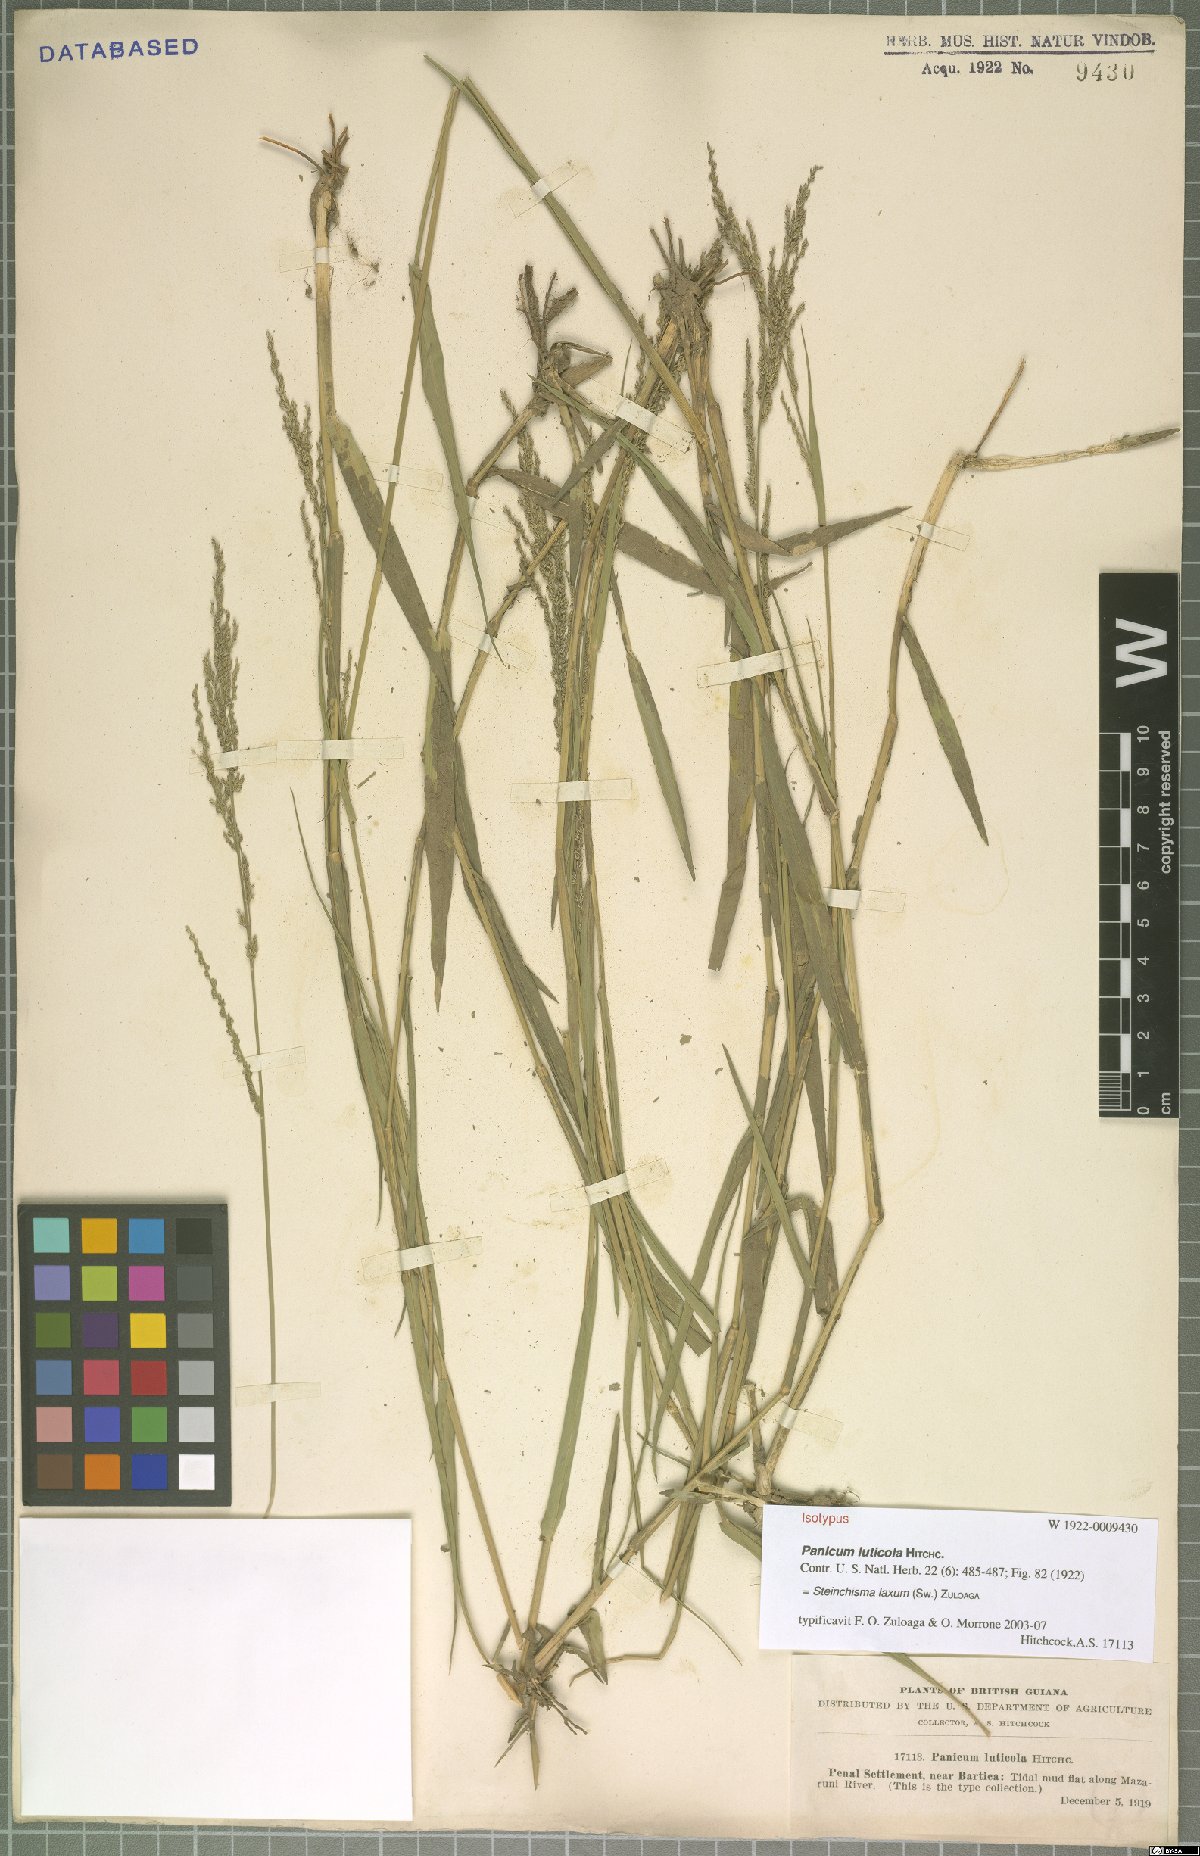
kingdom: Plantae
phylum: Tracheophyta
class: Liliopsida
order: Poales
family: Poaceae
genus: Steinchisma
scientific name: Steinchisma laxum
